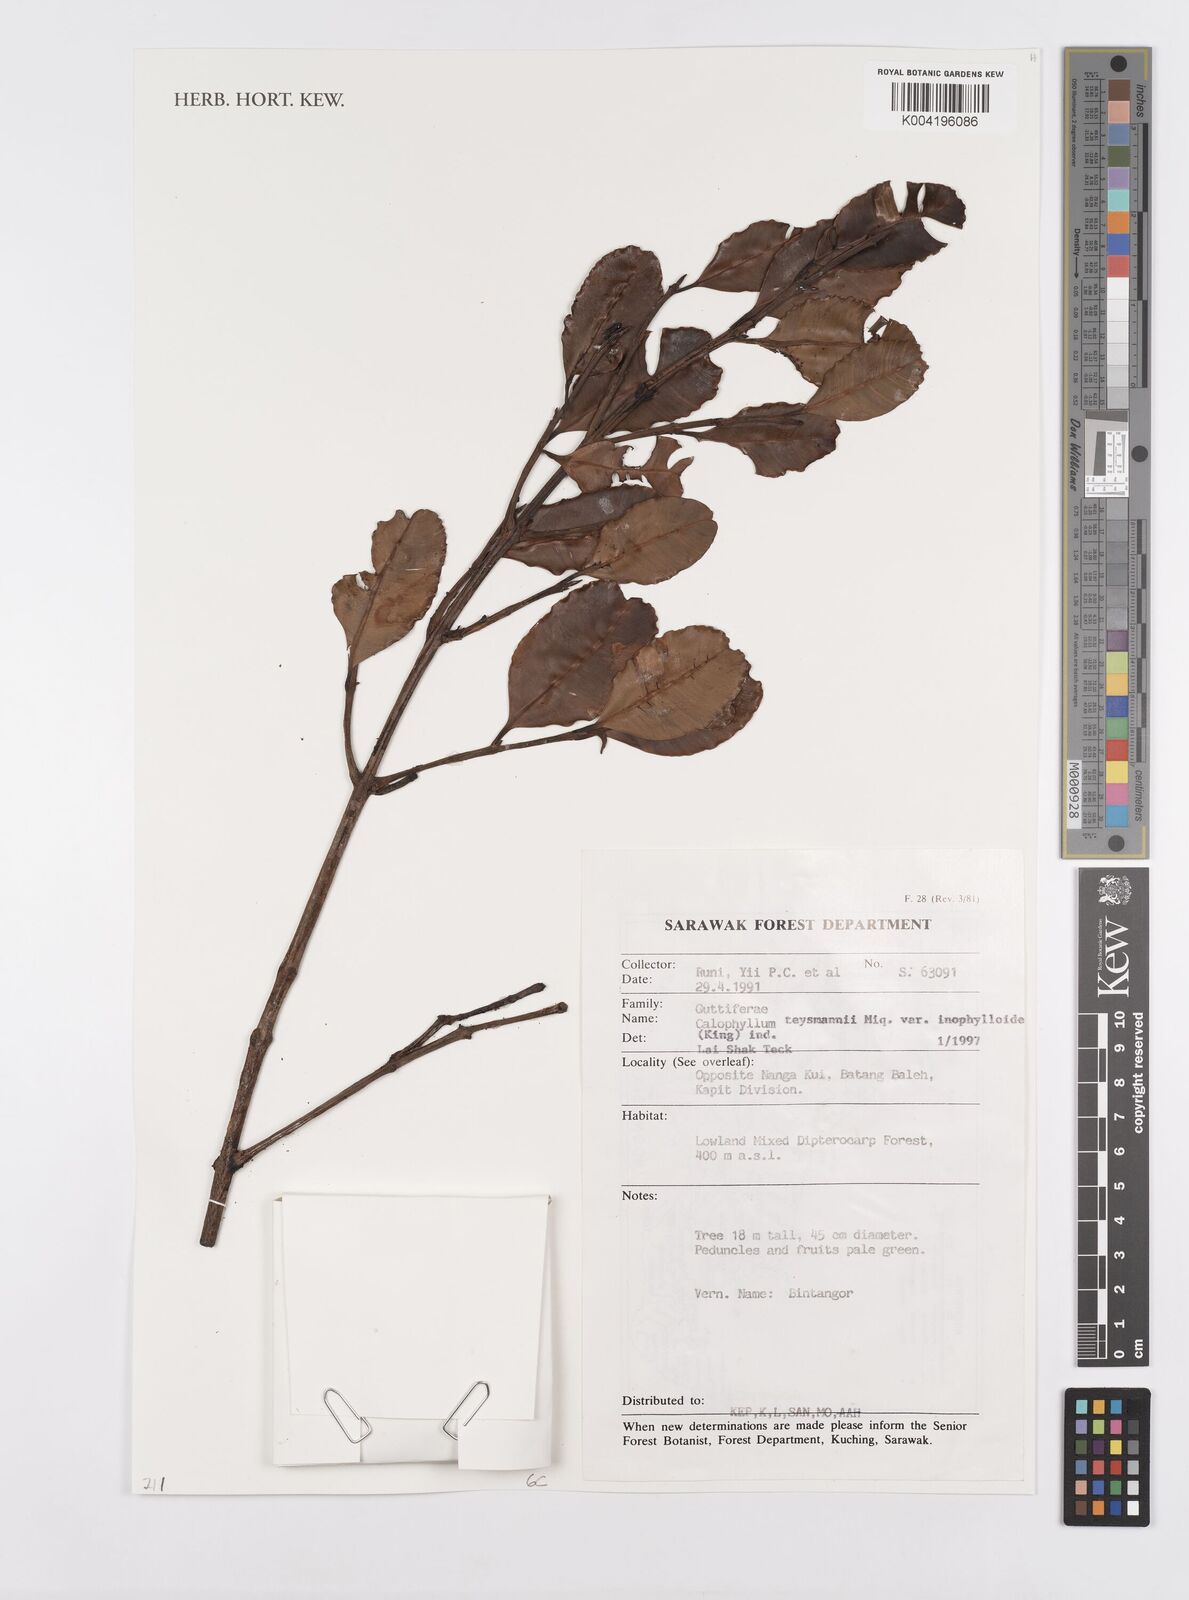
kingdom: Plantae
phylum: Tracheophyta
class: Magnoliopsida
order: Malpighiales
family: Calophyllaceae
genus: Calophyllum
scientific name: Calophyllum
